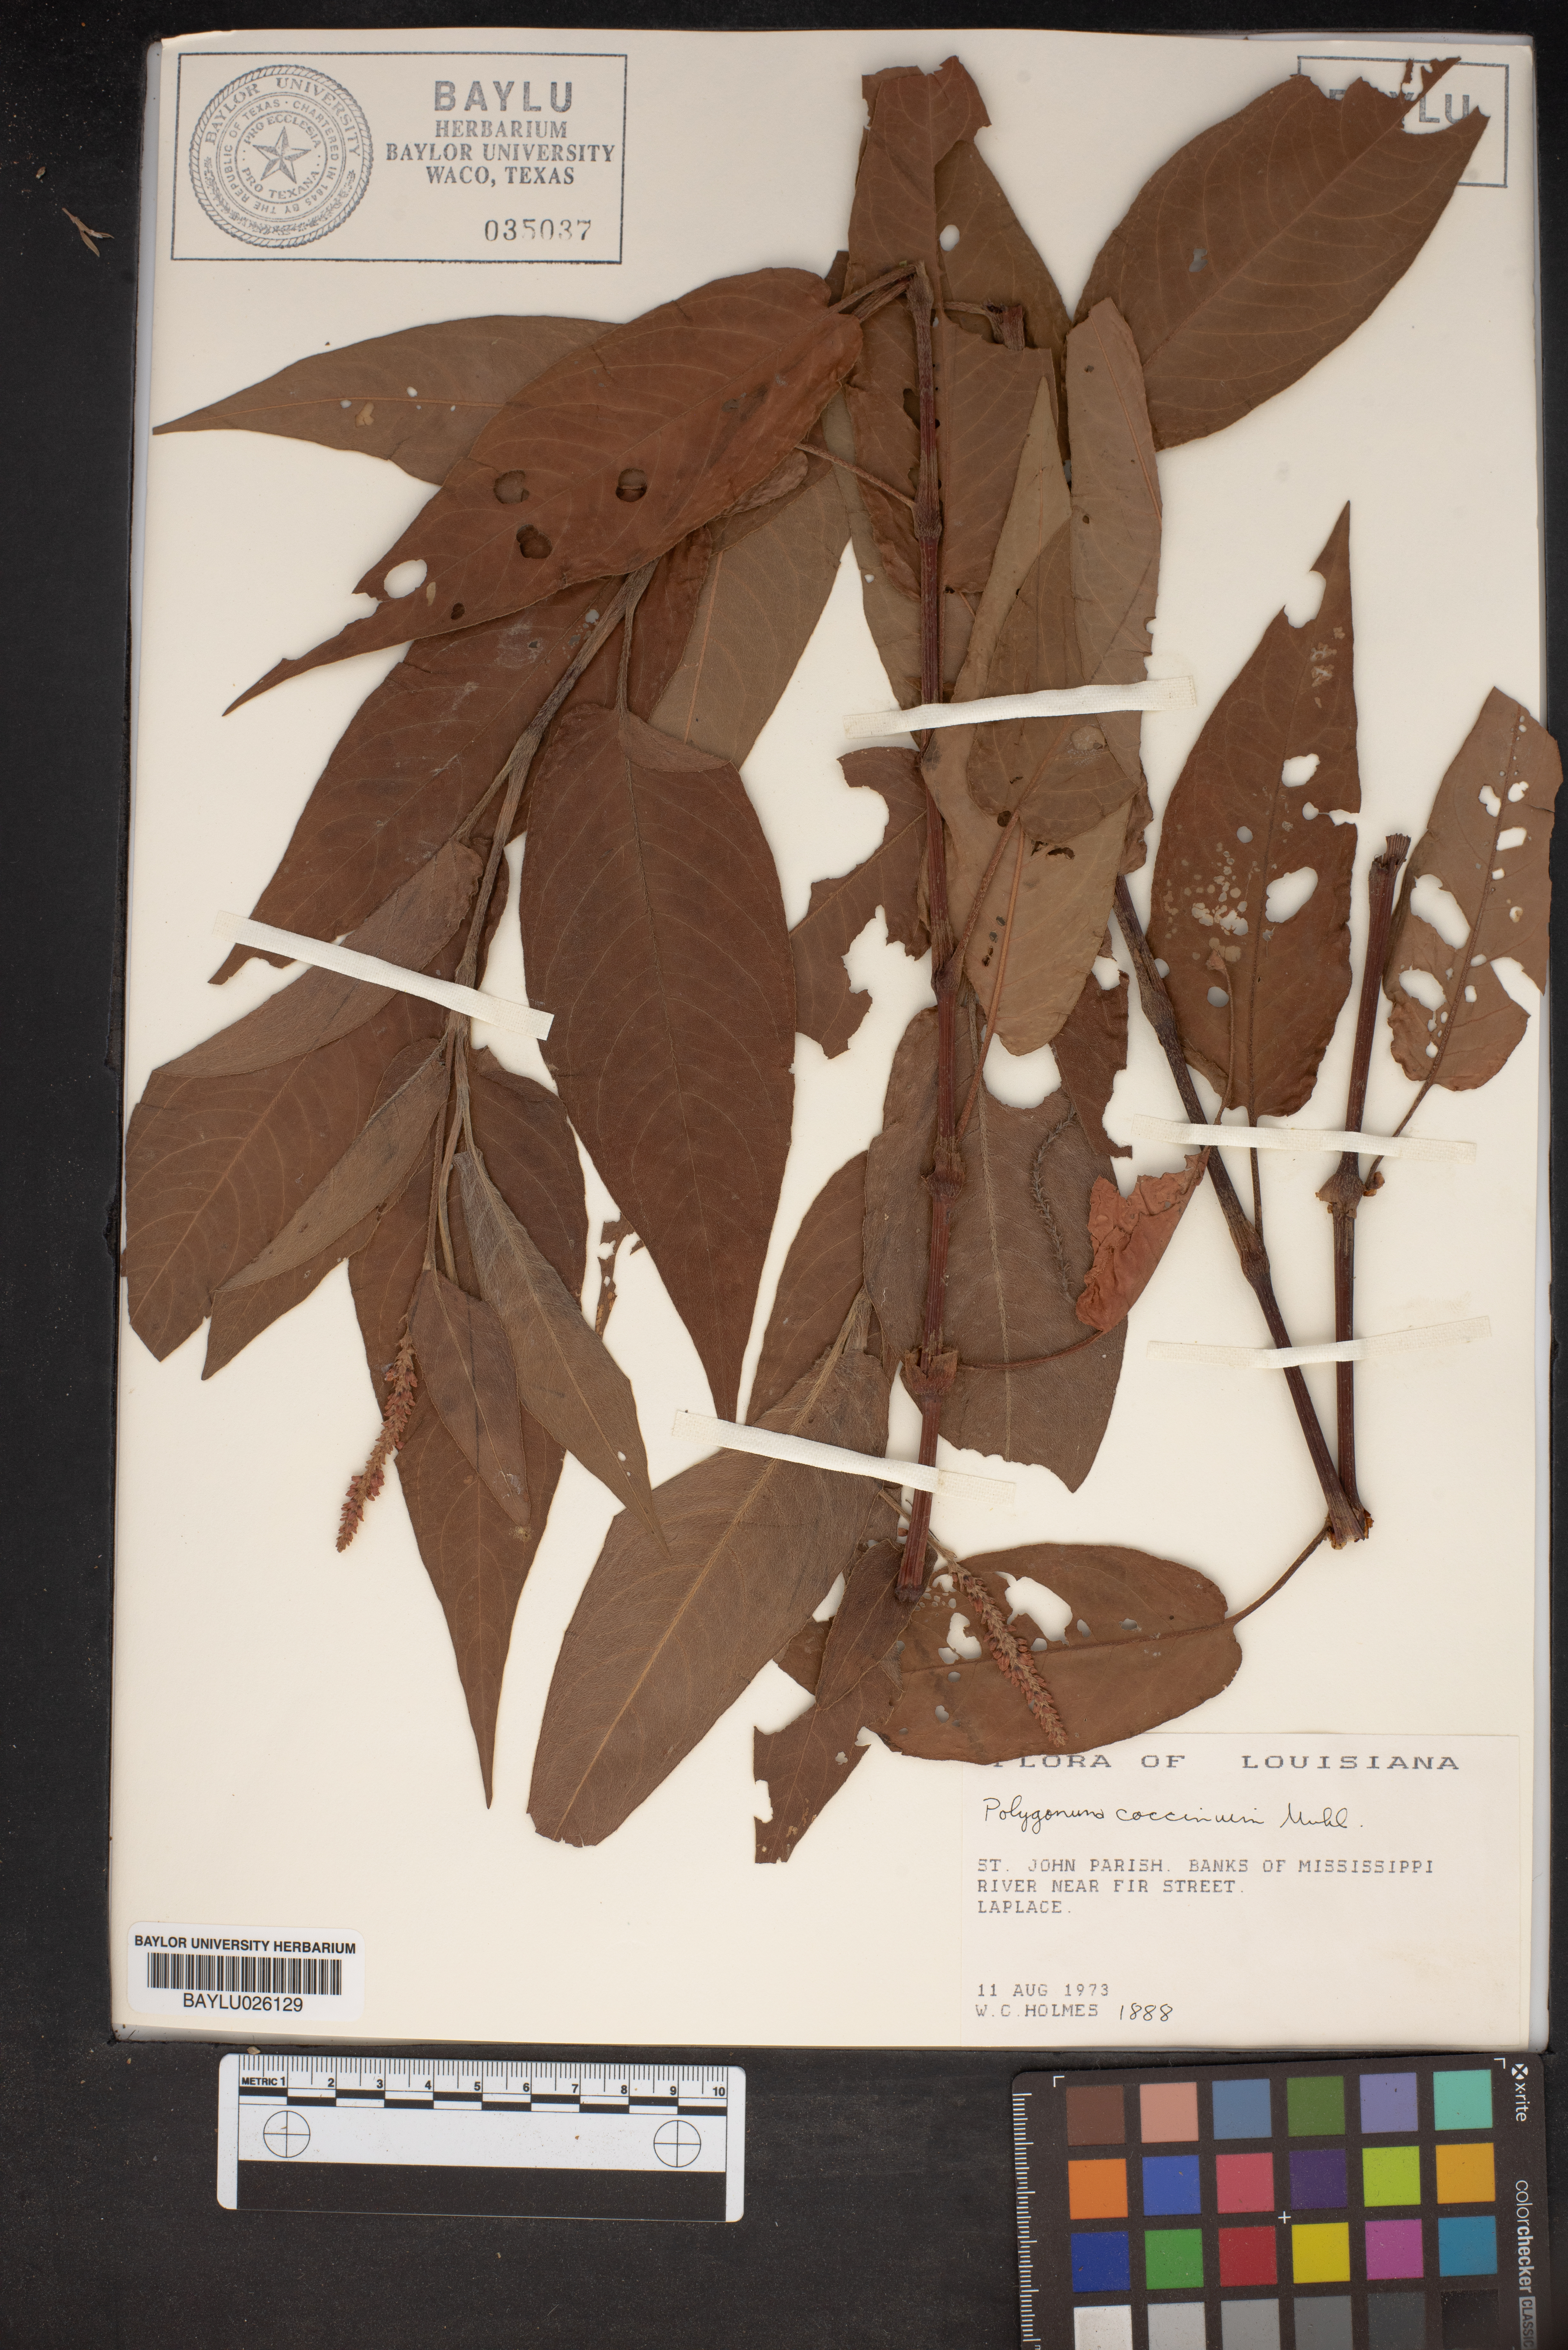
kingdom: Plantae
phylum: Tracheophyta
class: Magnoliopsida
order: Caryophyllales
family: Polygonaceae
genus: Persicaria
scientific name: Persicaria amphibia
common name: Amphibious bistort
